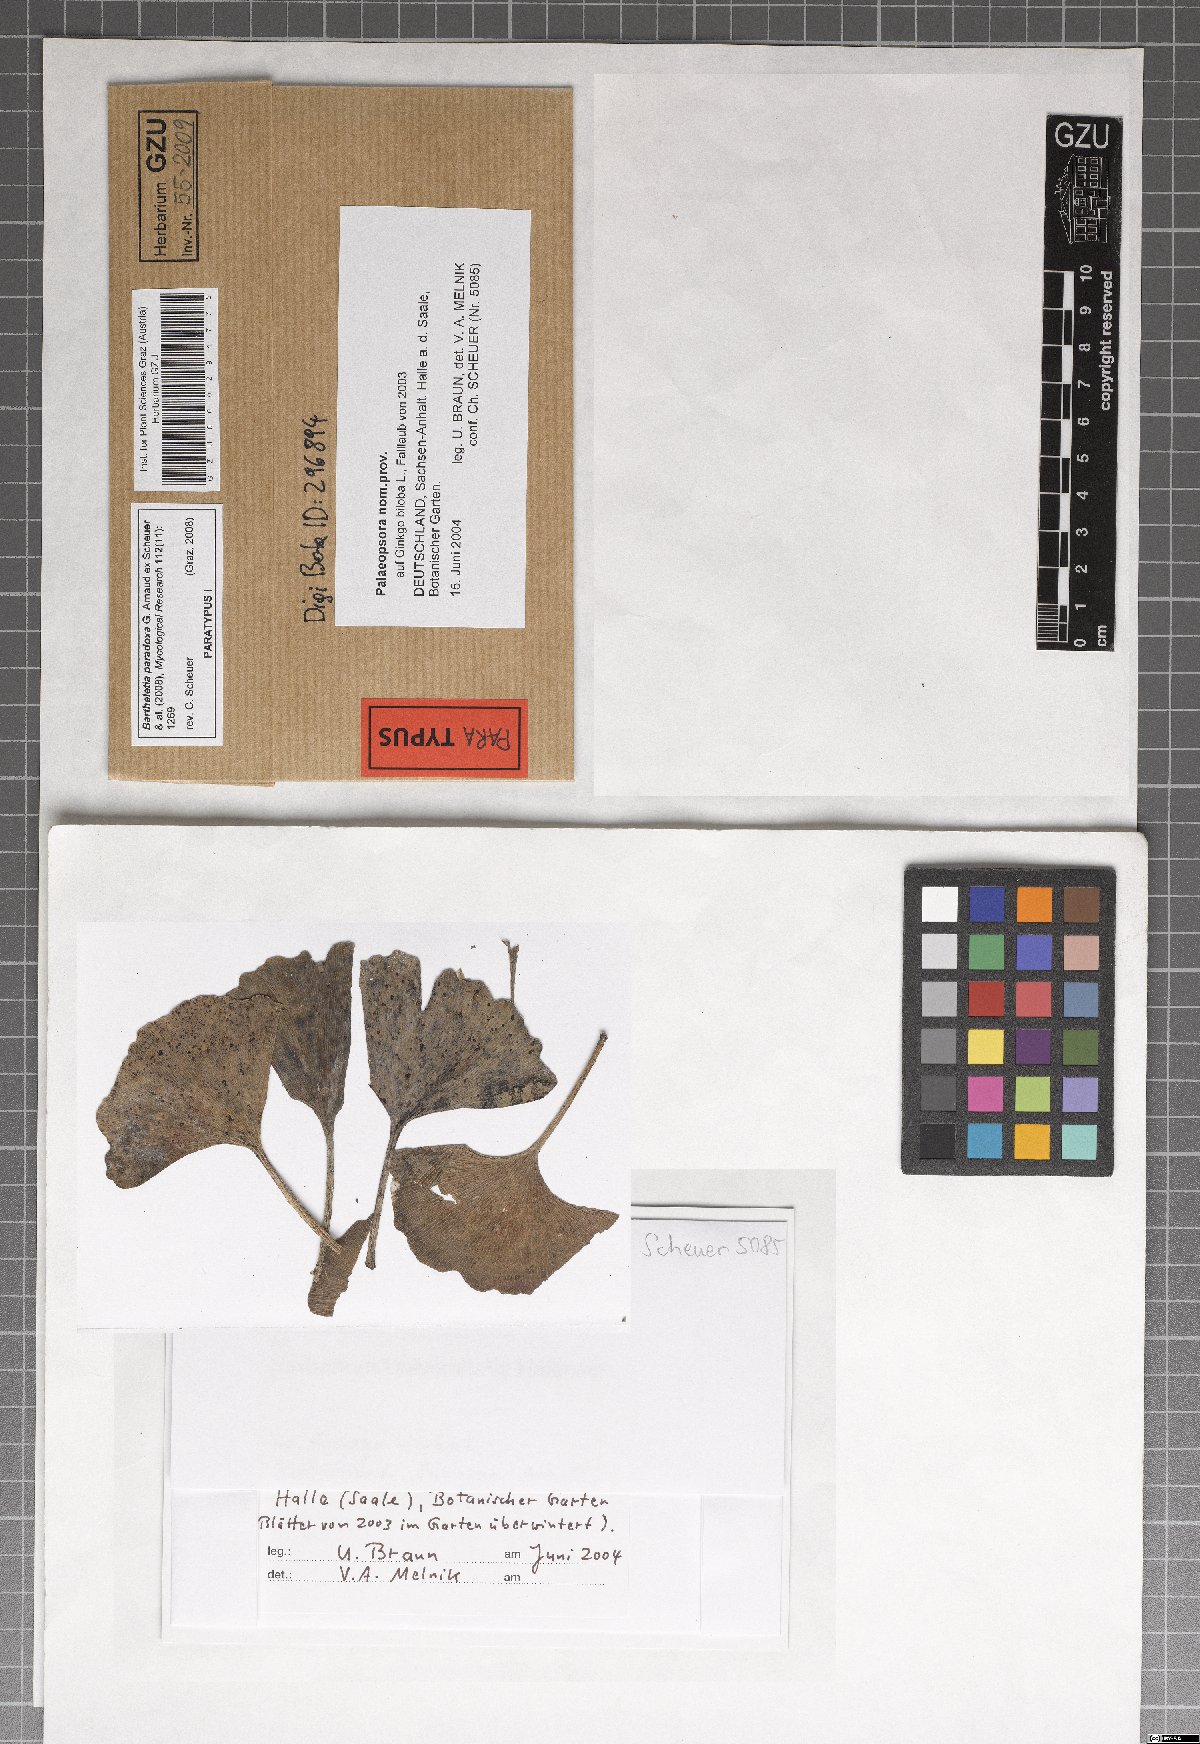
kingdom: Fungi
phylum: Basidiomycota
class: Wallemiomycetes
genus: Bartheletia
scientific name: Bartheletia paradoxa
